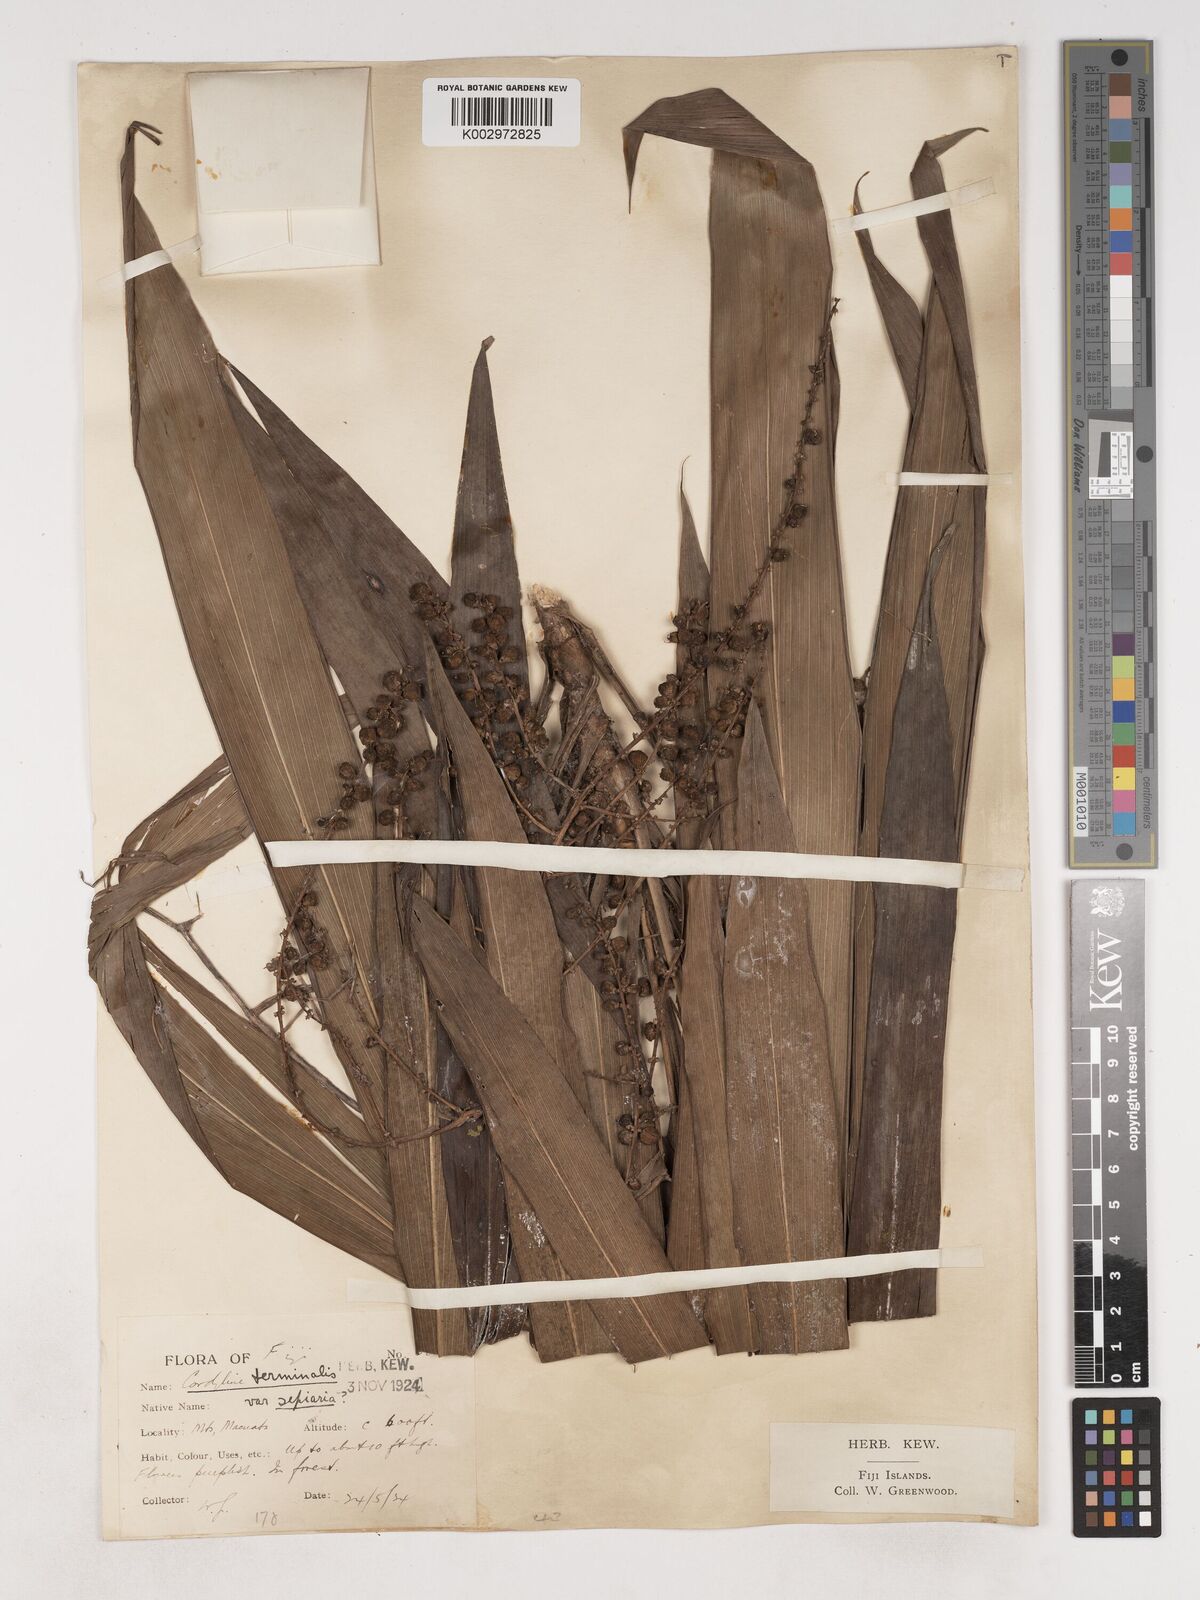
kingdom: Plantae
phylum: Tracheophyta
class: Liliopsida
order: Asparagales
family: Asparagaceae
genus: Cordyline
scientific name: Cordyline fruticosa
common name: Good-luck-plant
